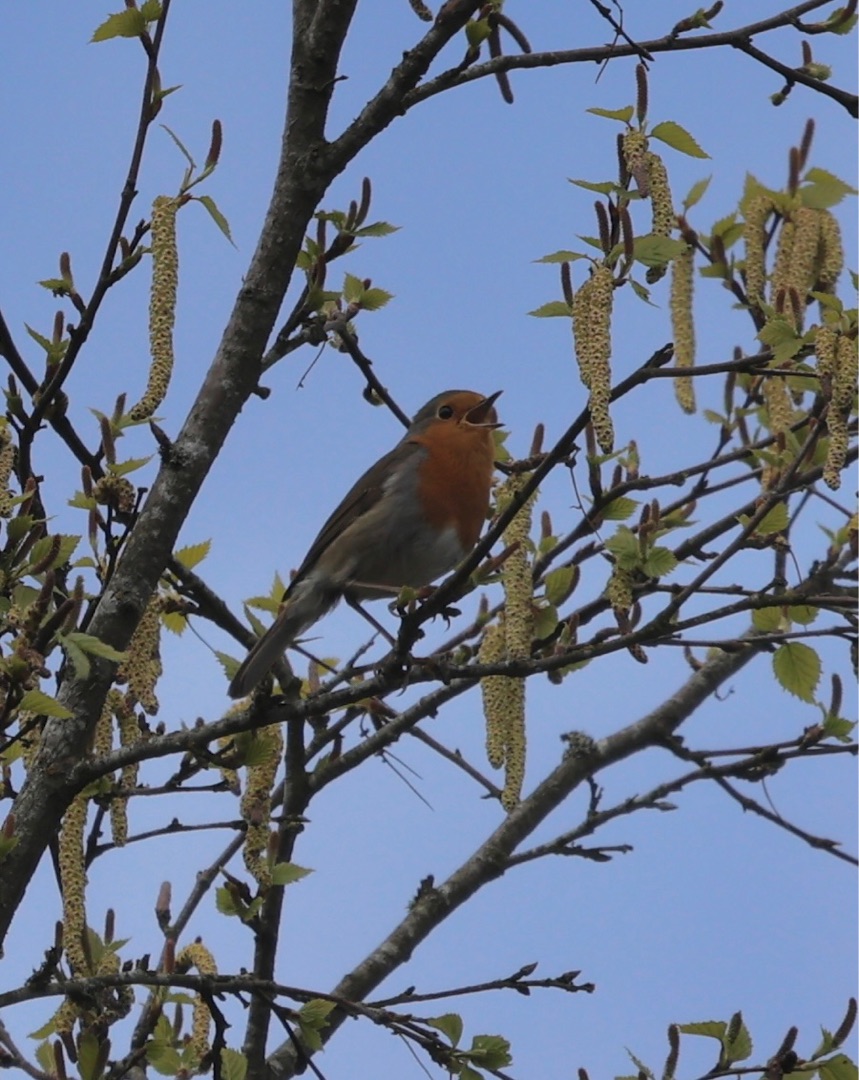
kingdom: Animalia
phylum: Chordata
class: Aves
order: Passeriformes
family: Muscicapidae
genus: Erithacus
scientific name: Erithacus rubecula
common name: Rødhals/rødkælk
